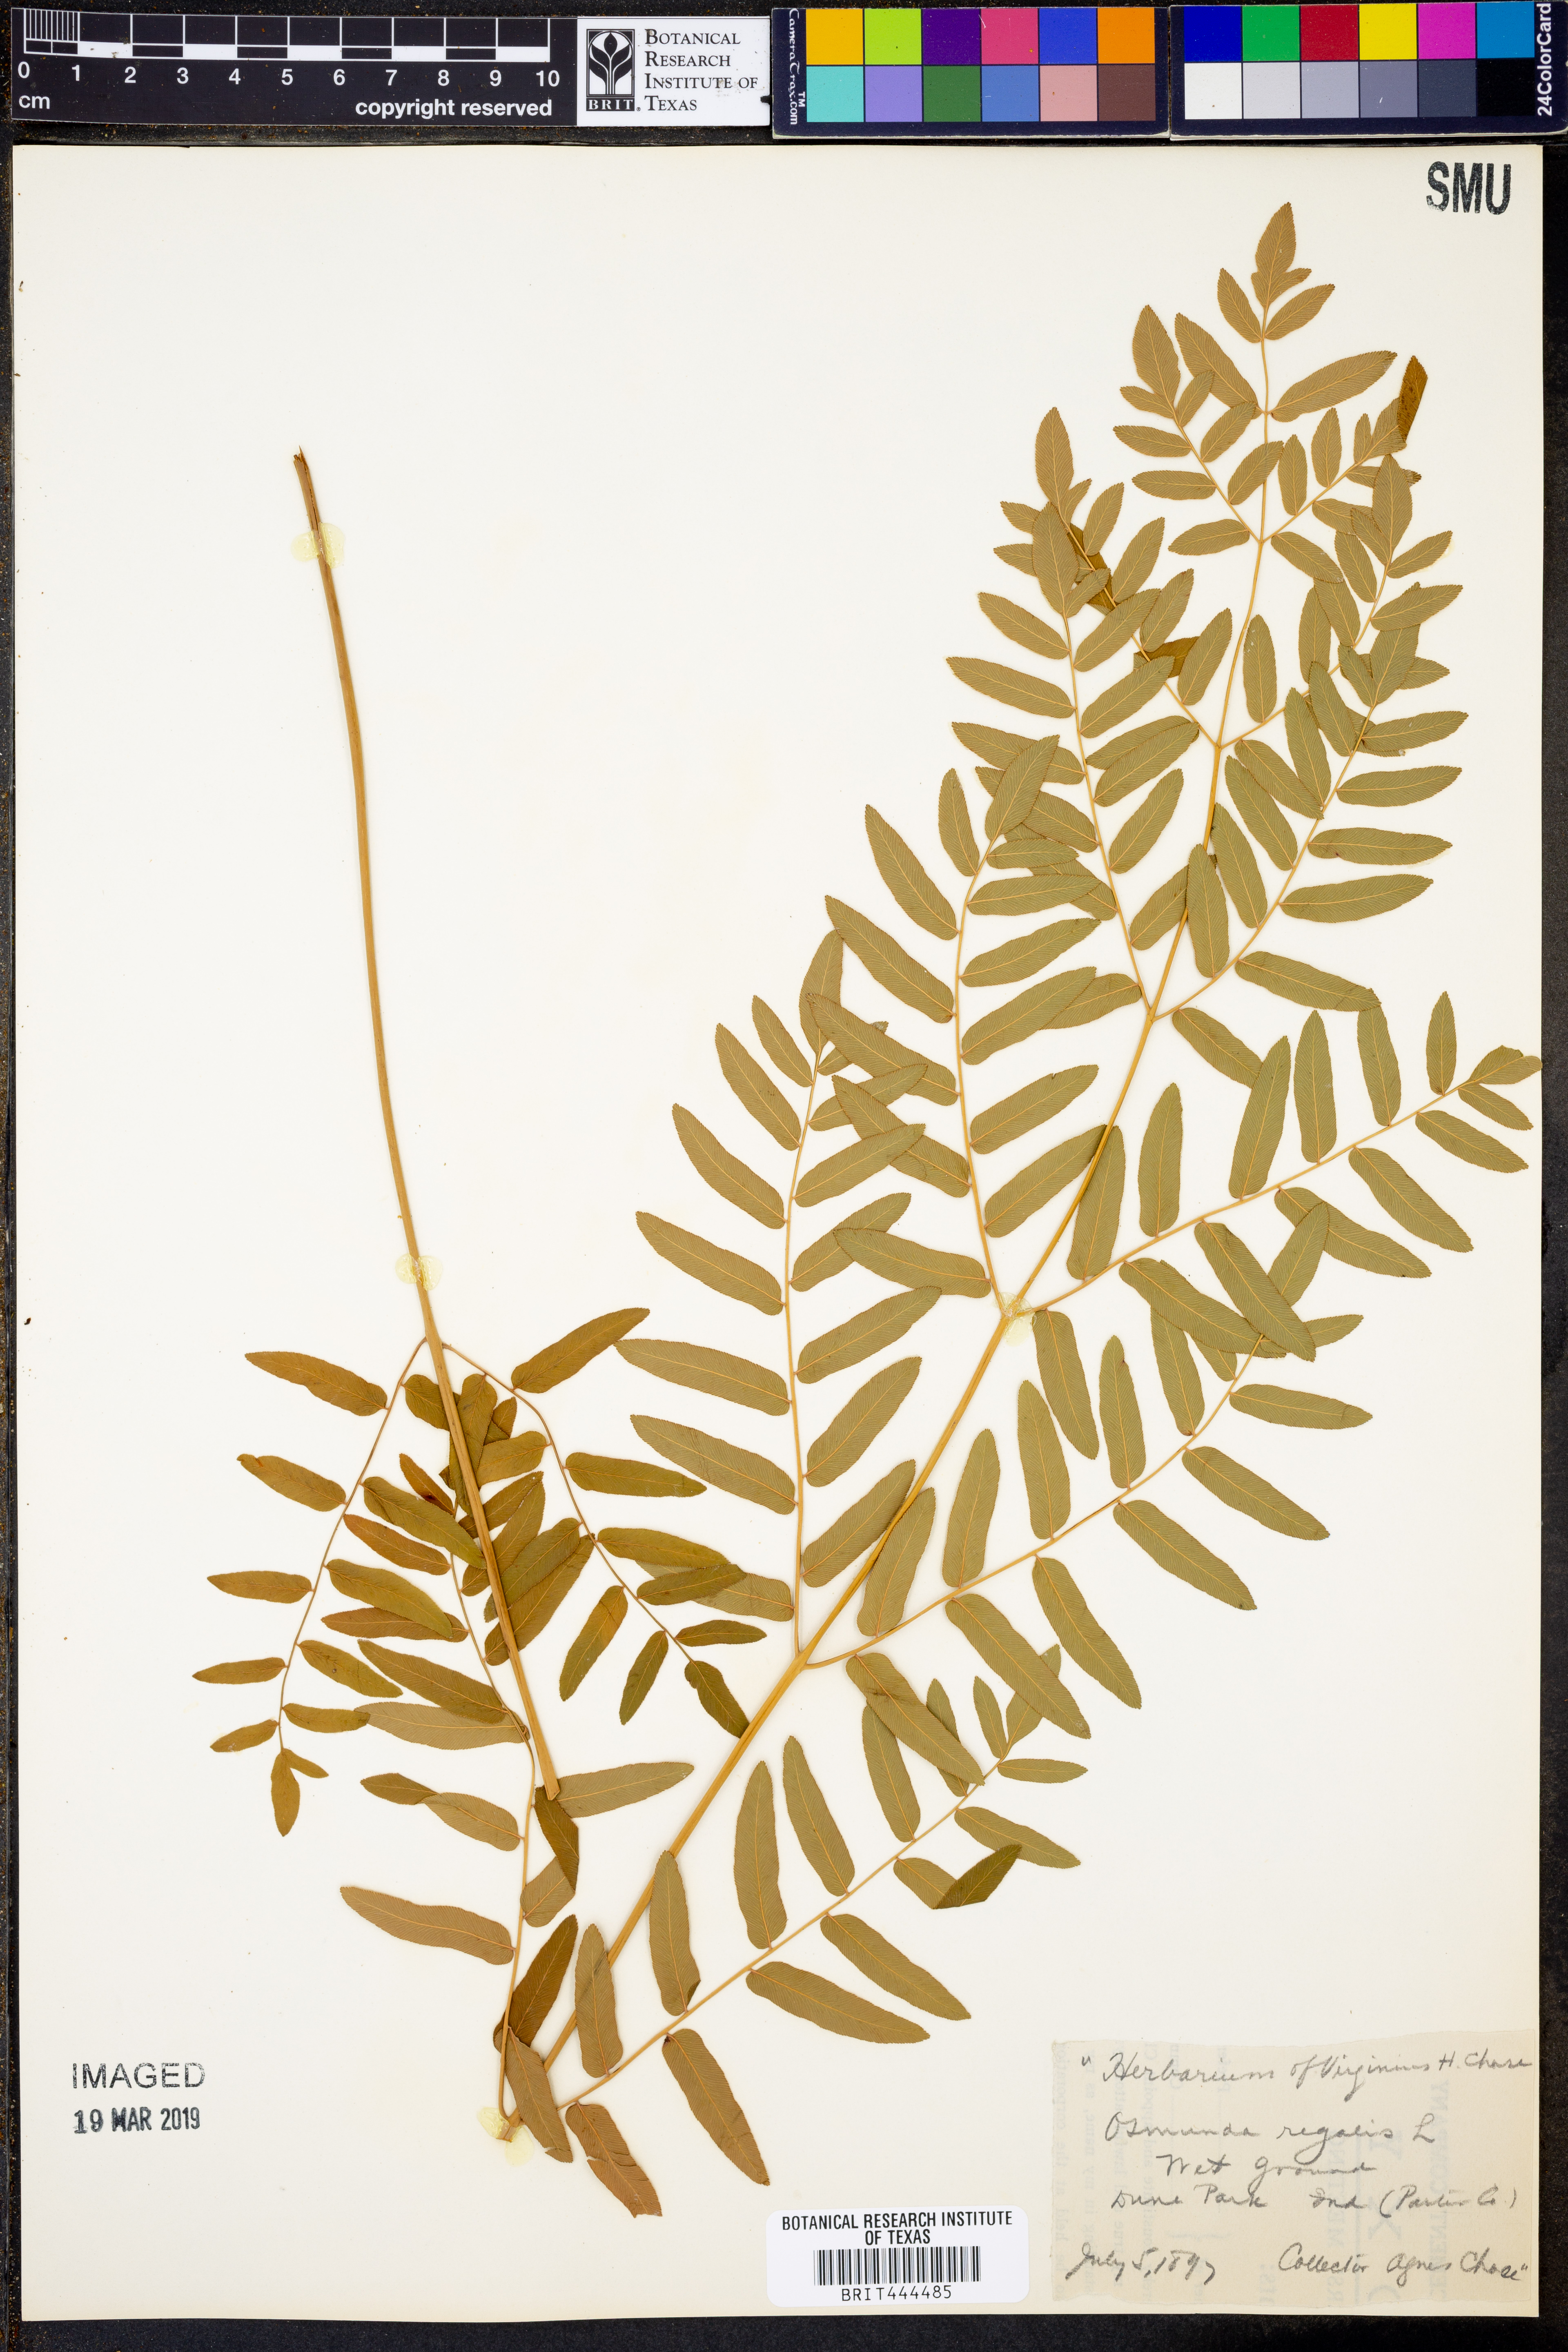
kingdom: Plantae
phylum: Tracheophyta
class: Polypodiopsida
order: Osmundales
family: Osmundaceae
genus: Osmunda
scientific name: Osmunda regalis
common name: Royal fern
